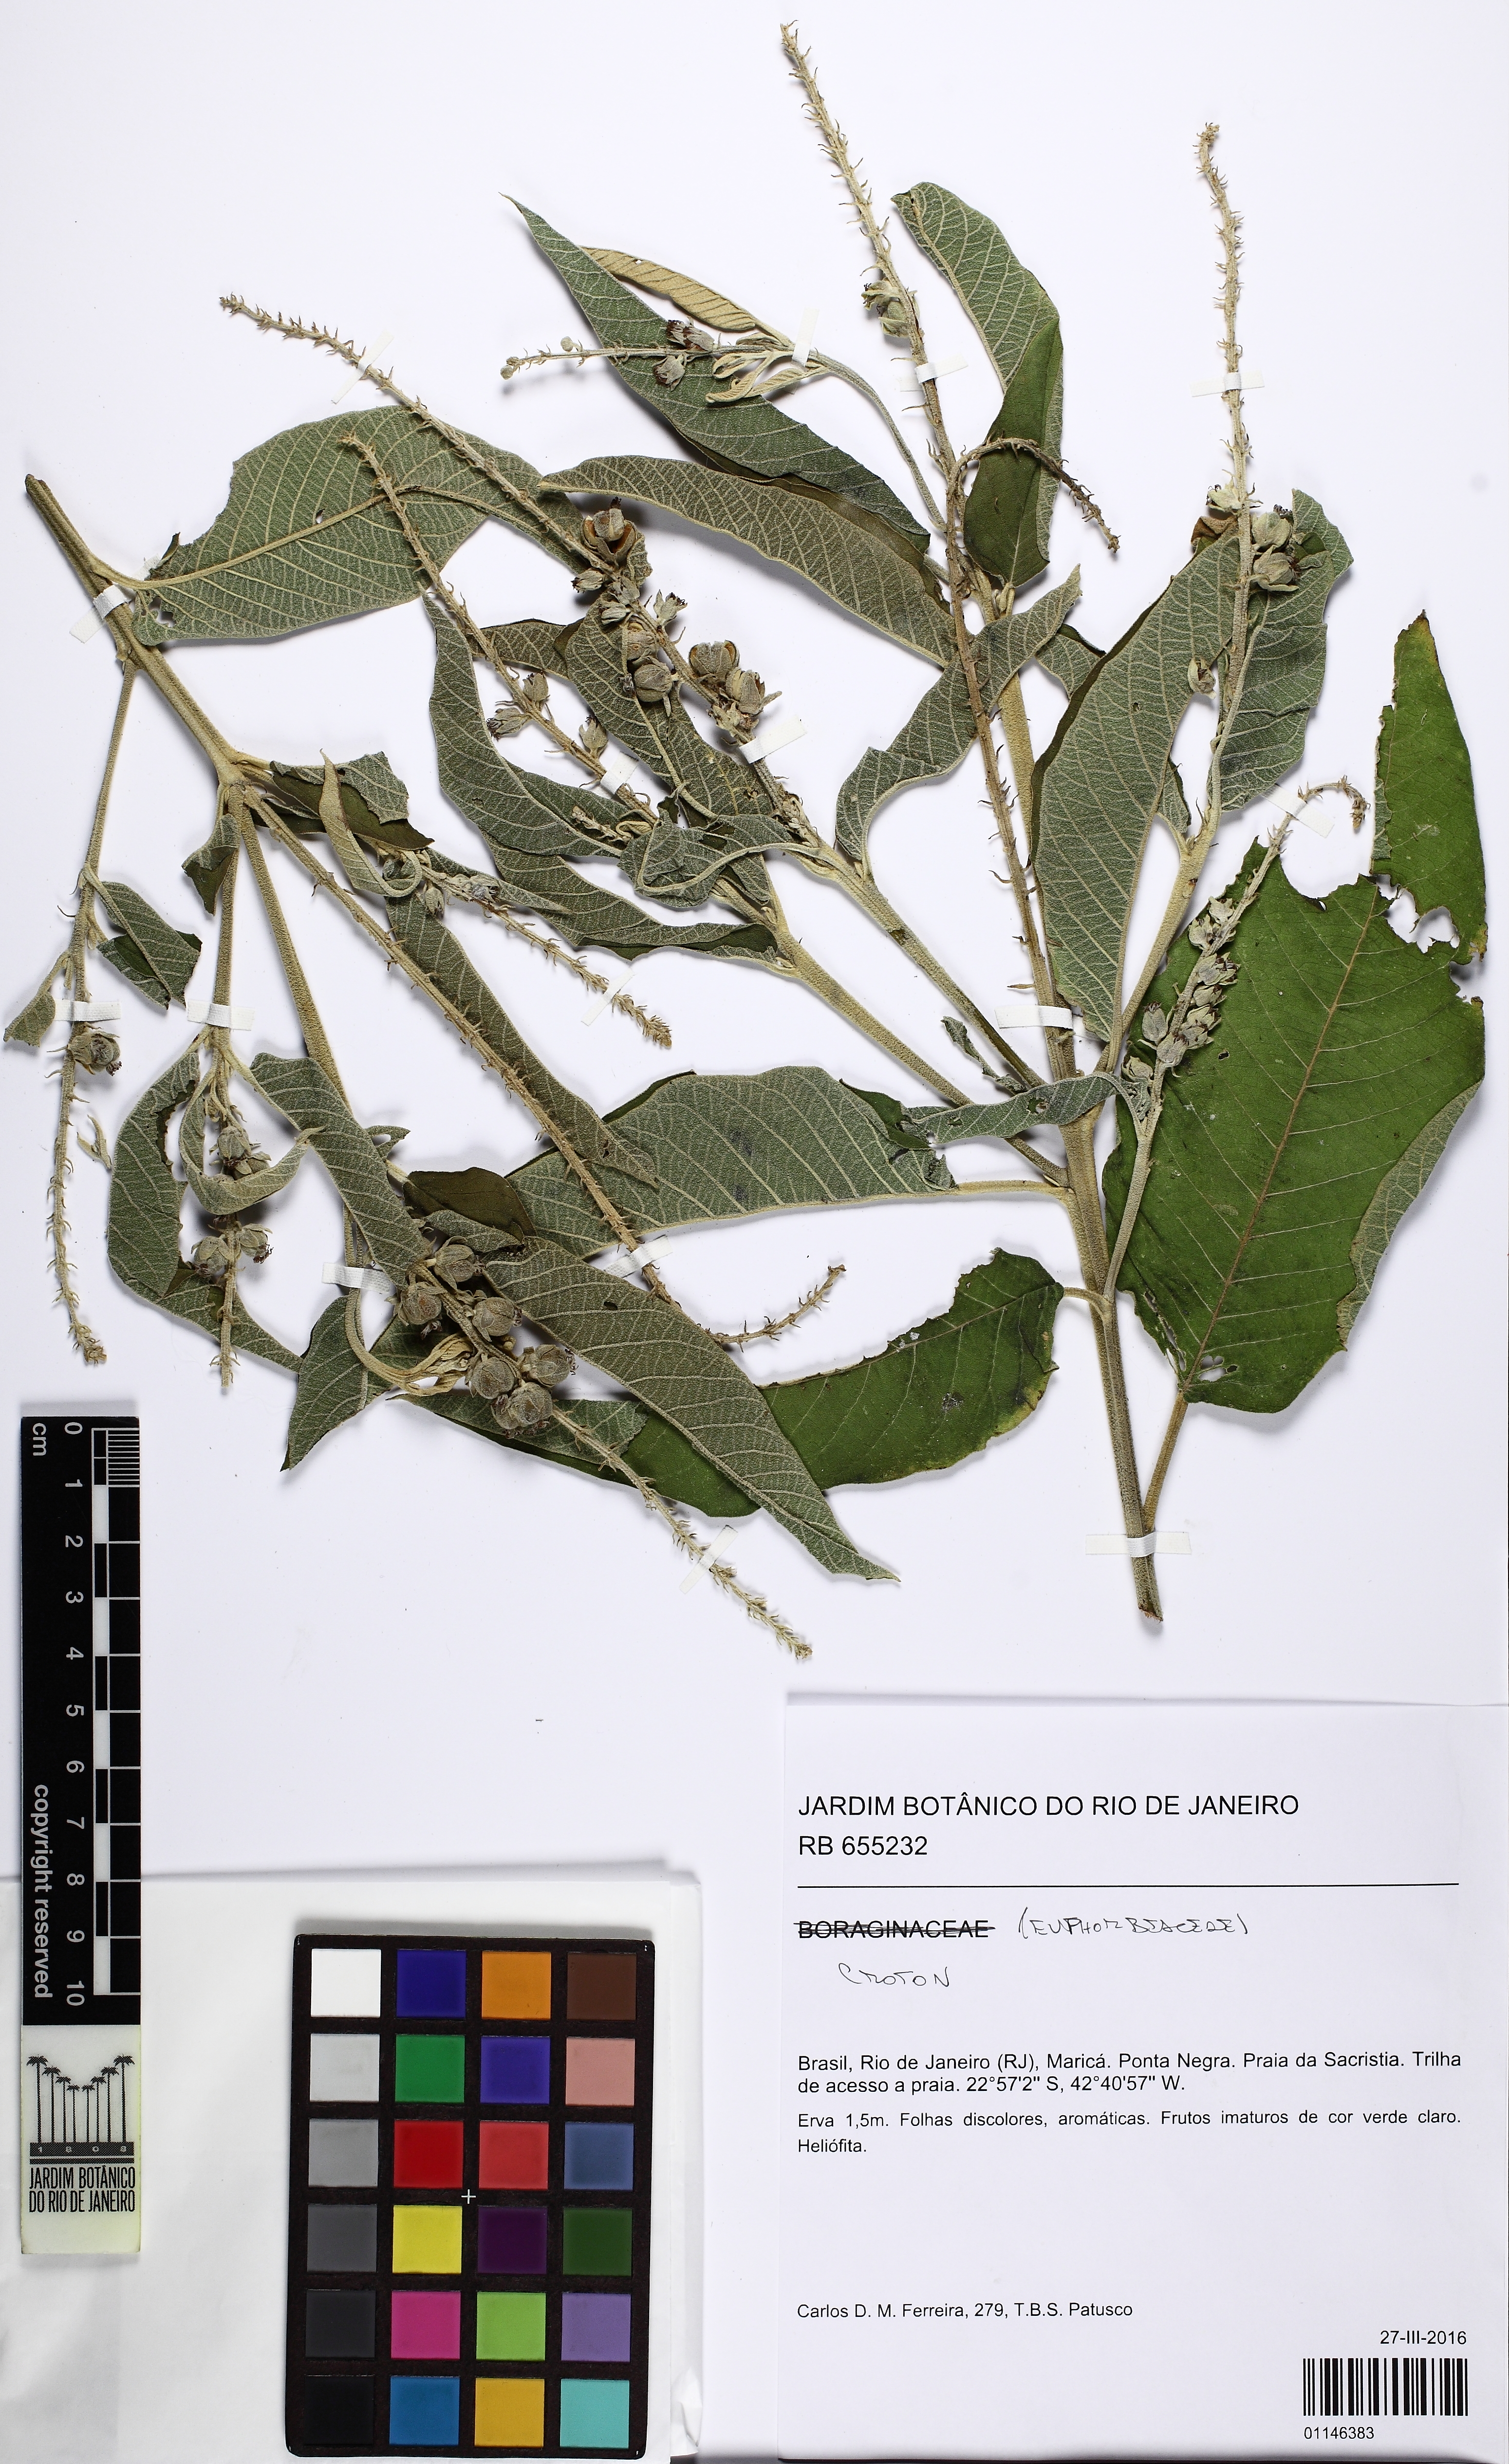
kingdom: Plantae
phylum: Tracheophyta
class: Magnoliopsida
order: Malpighiales
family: Euphorbiaceae
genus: Croton
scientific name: Croton compressus
